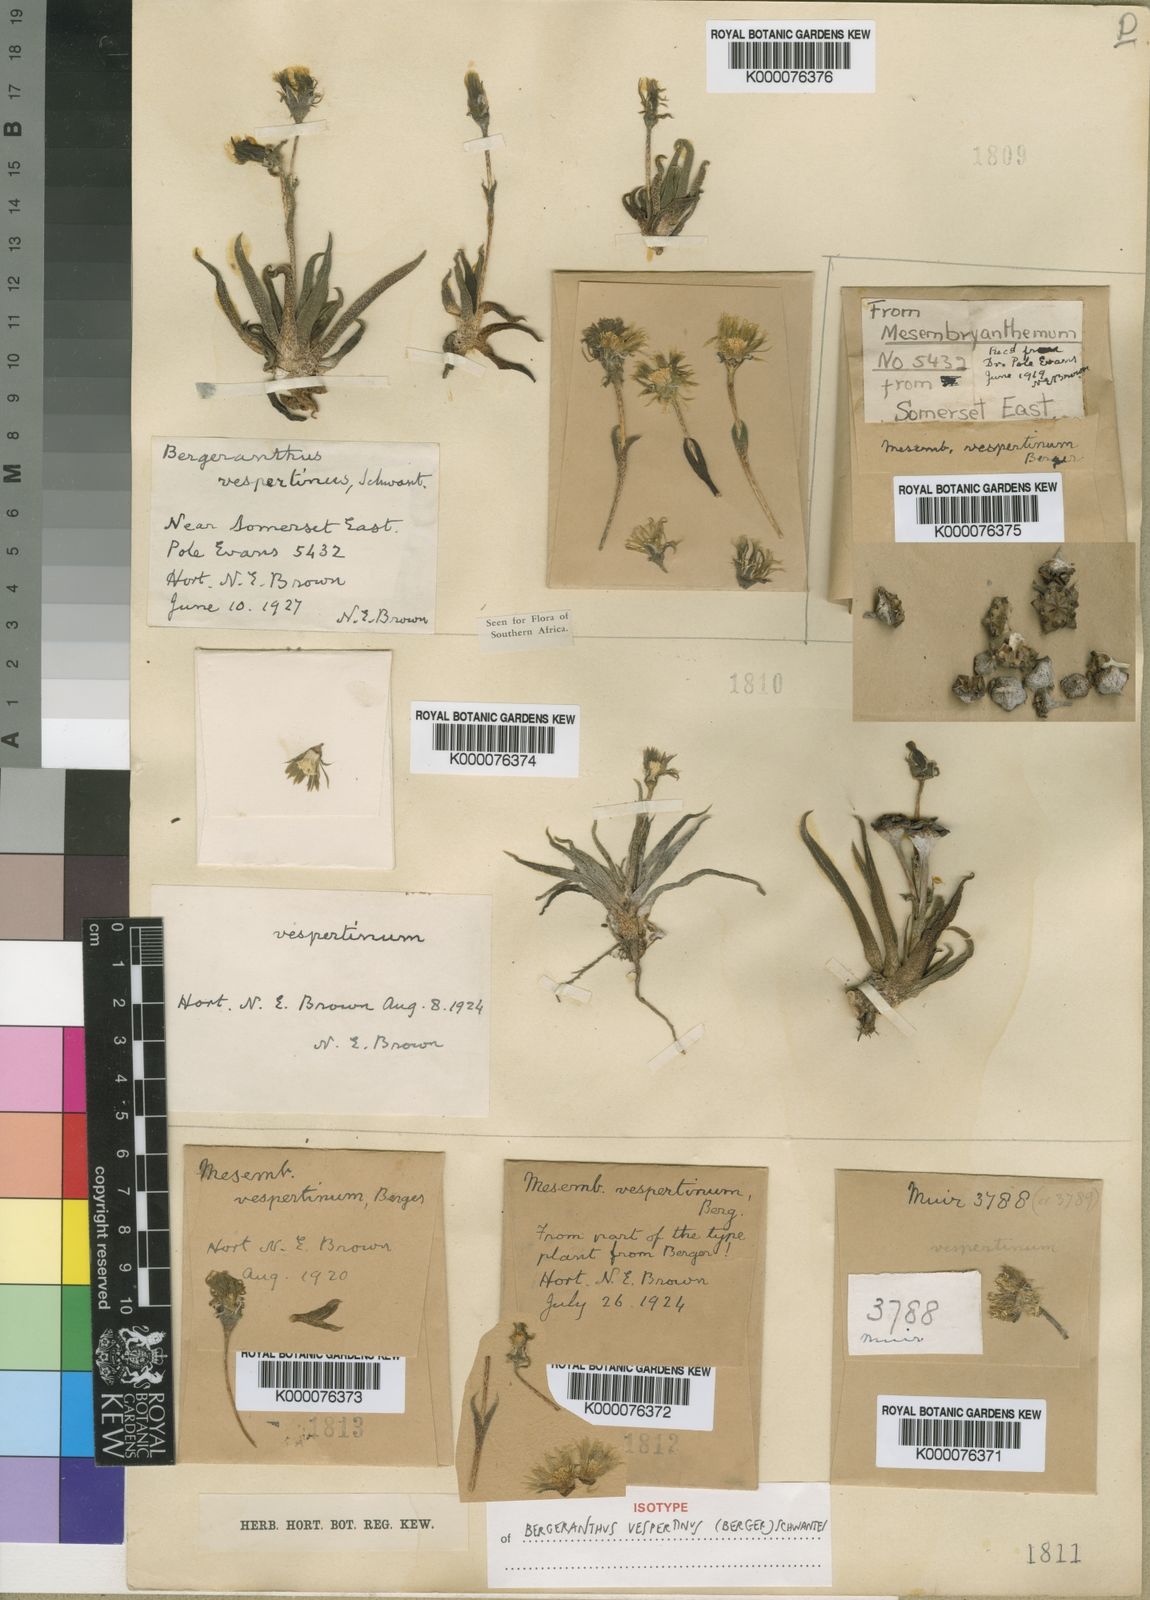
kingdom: Plantae
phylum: Tracheophyta
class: Magnoliopsida
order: Caryophyllales
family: Aizoaceae
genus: Bergeranthus
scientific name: Bergeranthus vespertinus
